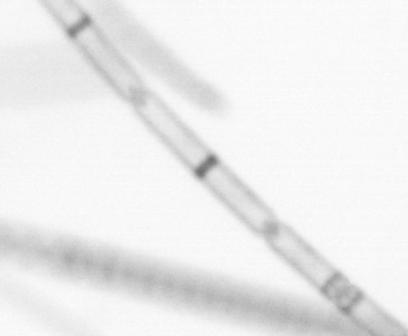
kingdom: Chromista
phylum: Ochrophyta
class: Bacillariophyceae
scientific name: Bacillariophyceae
